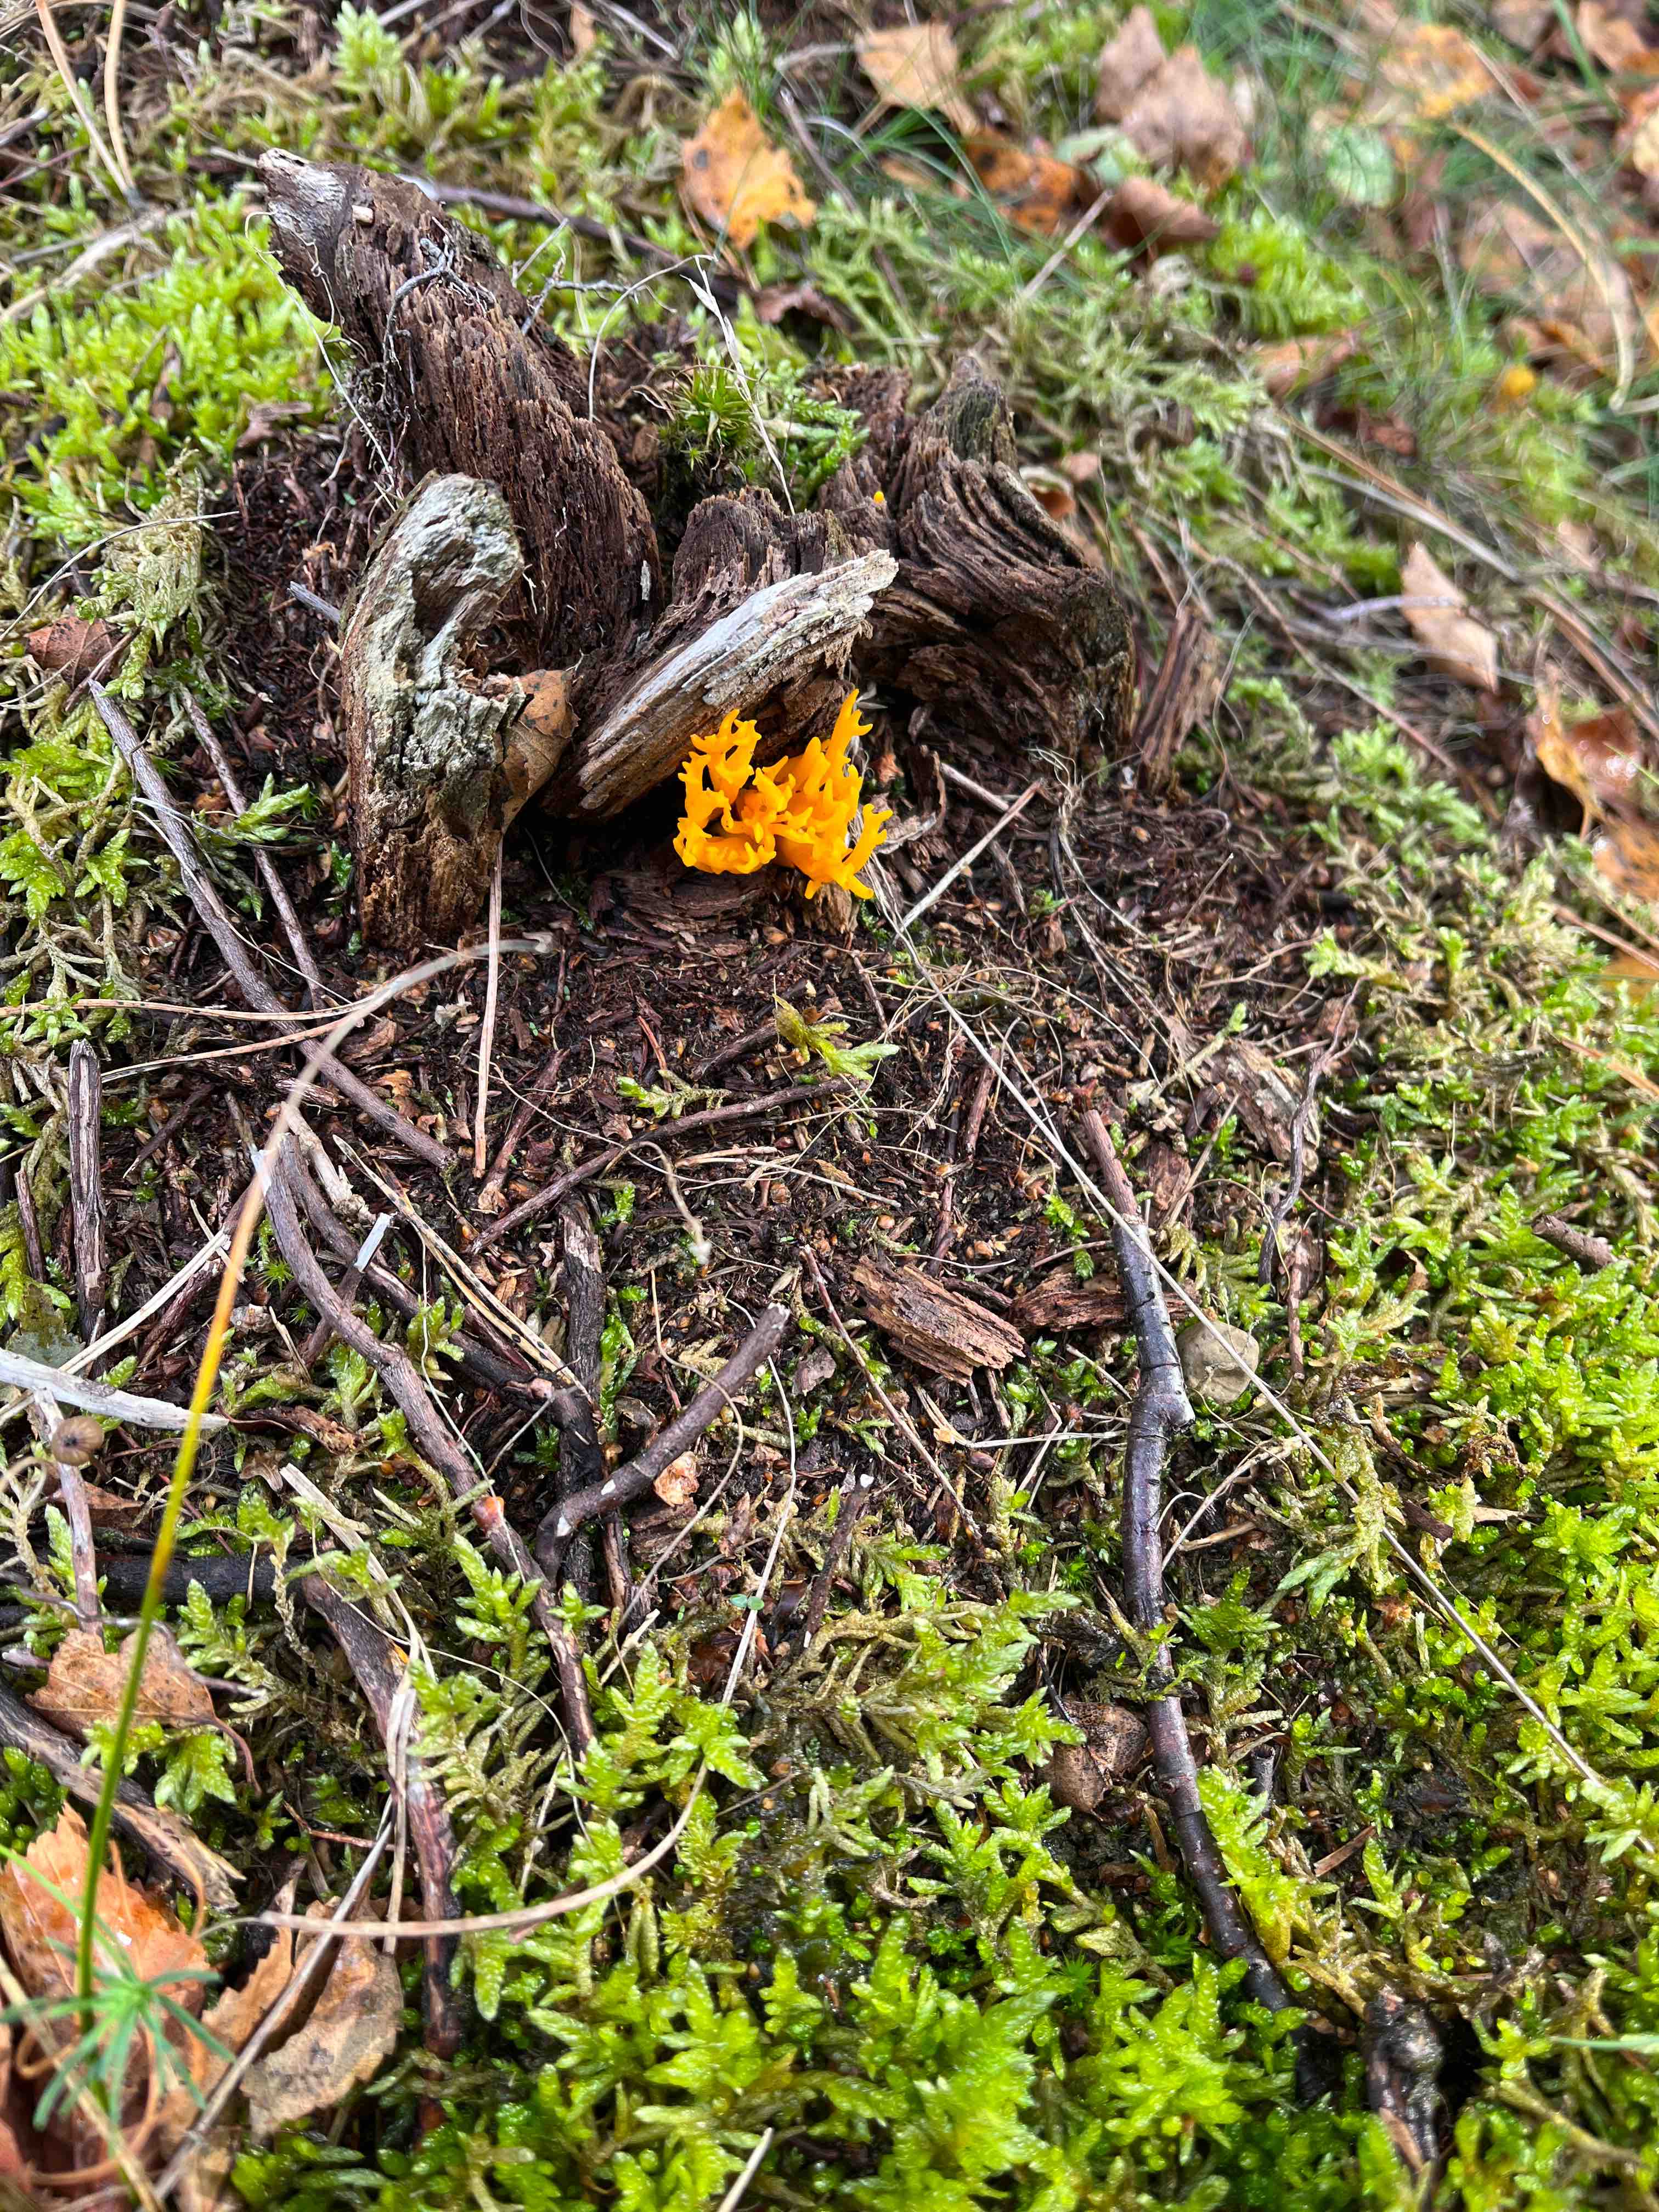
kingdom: Fungi
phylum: Basidiomycota
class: Dacrymycetes
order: Dacrymycetales
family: Dacrymycetaceae
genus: Calocera
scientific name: Calocera viscosa
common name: almindelig guldgaffel
